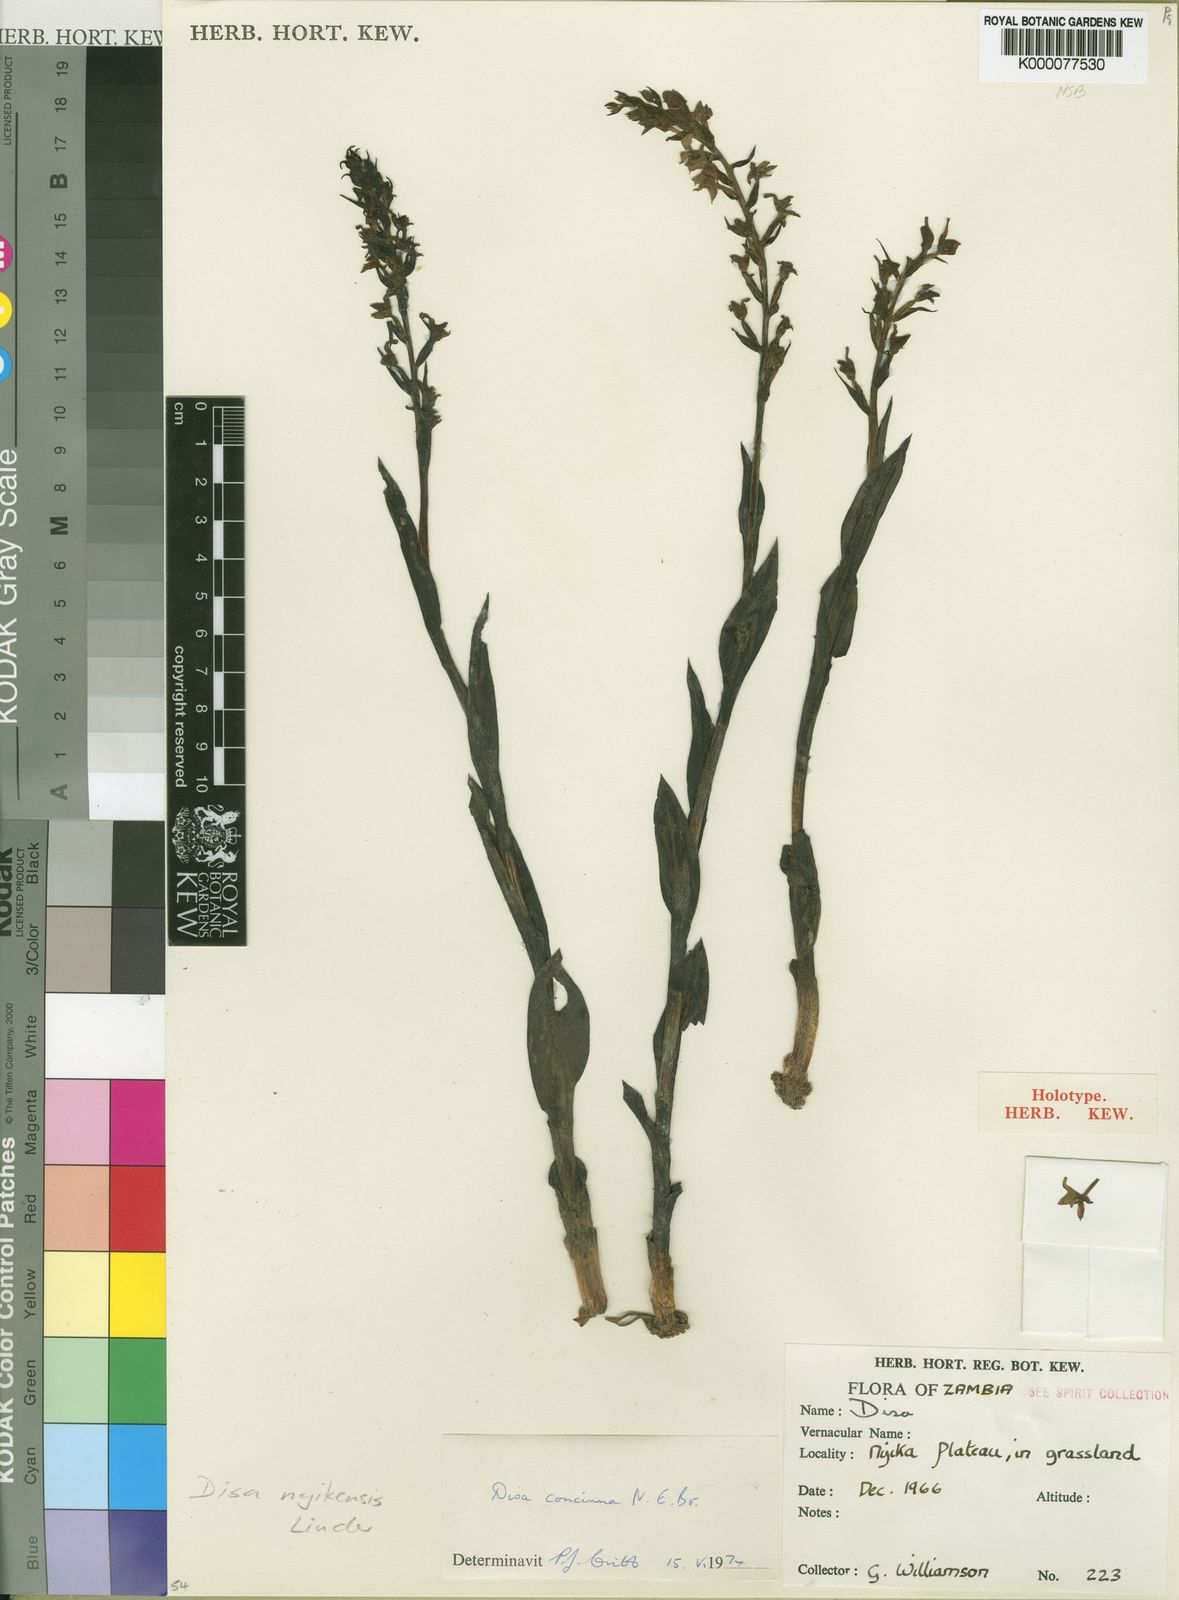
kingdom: Plantae
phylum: Tracheophyta
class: Liliopsida
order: Asparagales
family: Orchidaceae
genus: Disa
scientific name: Disa nyikensis
